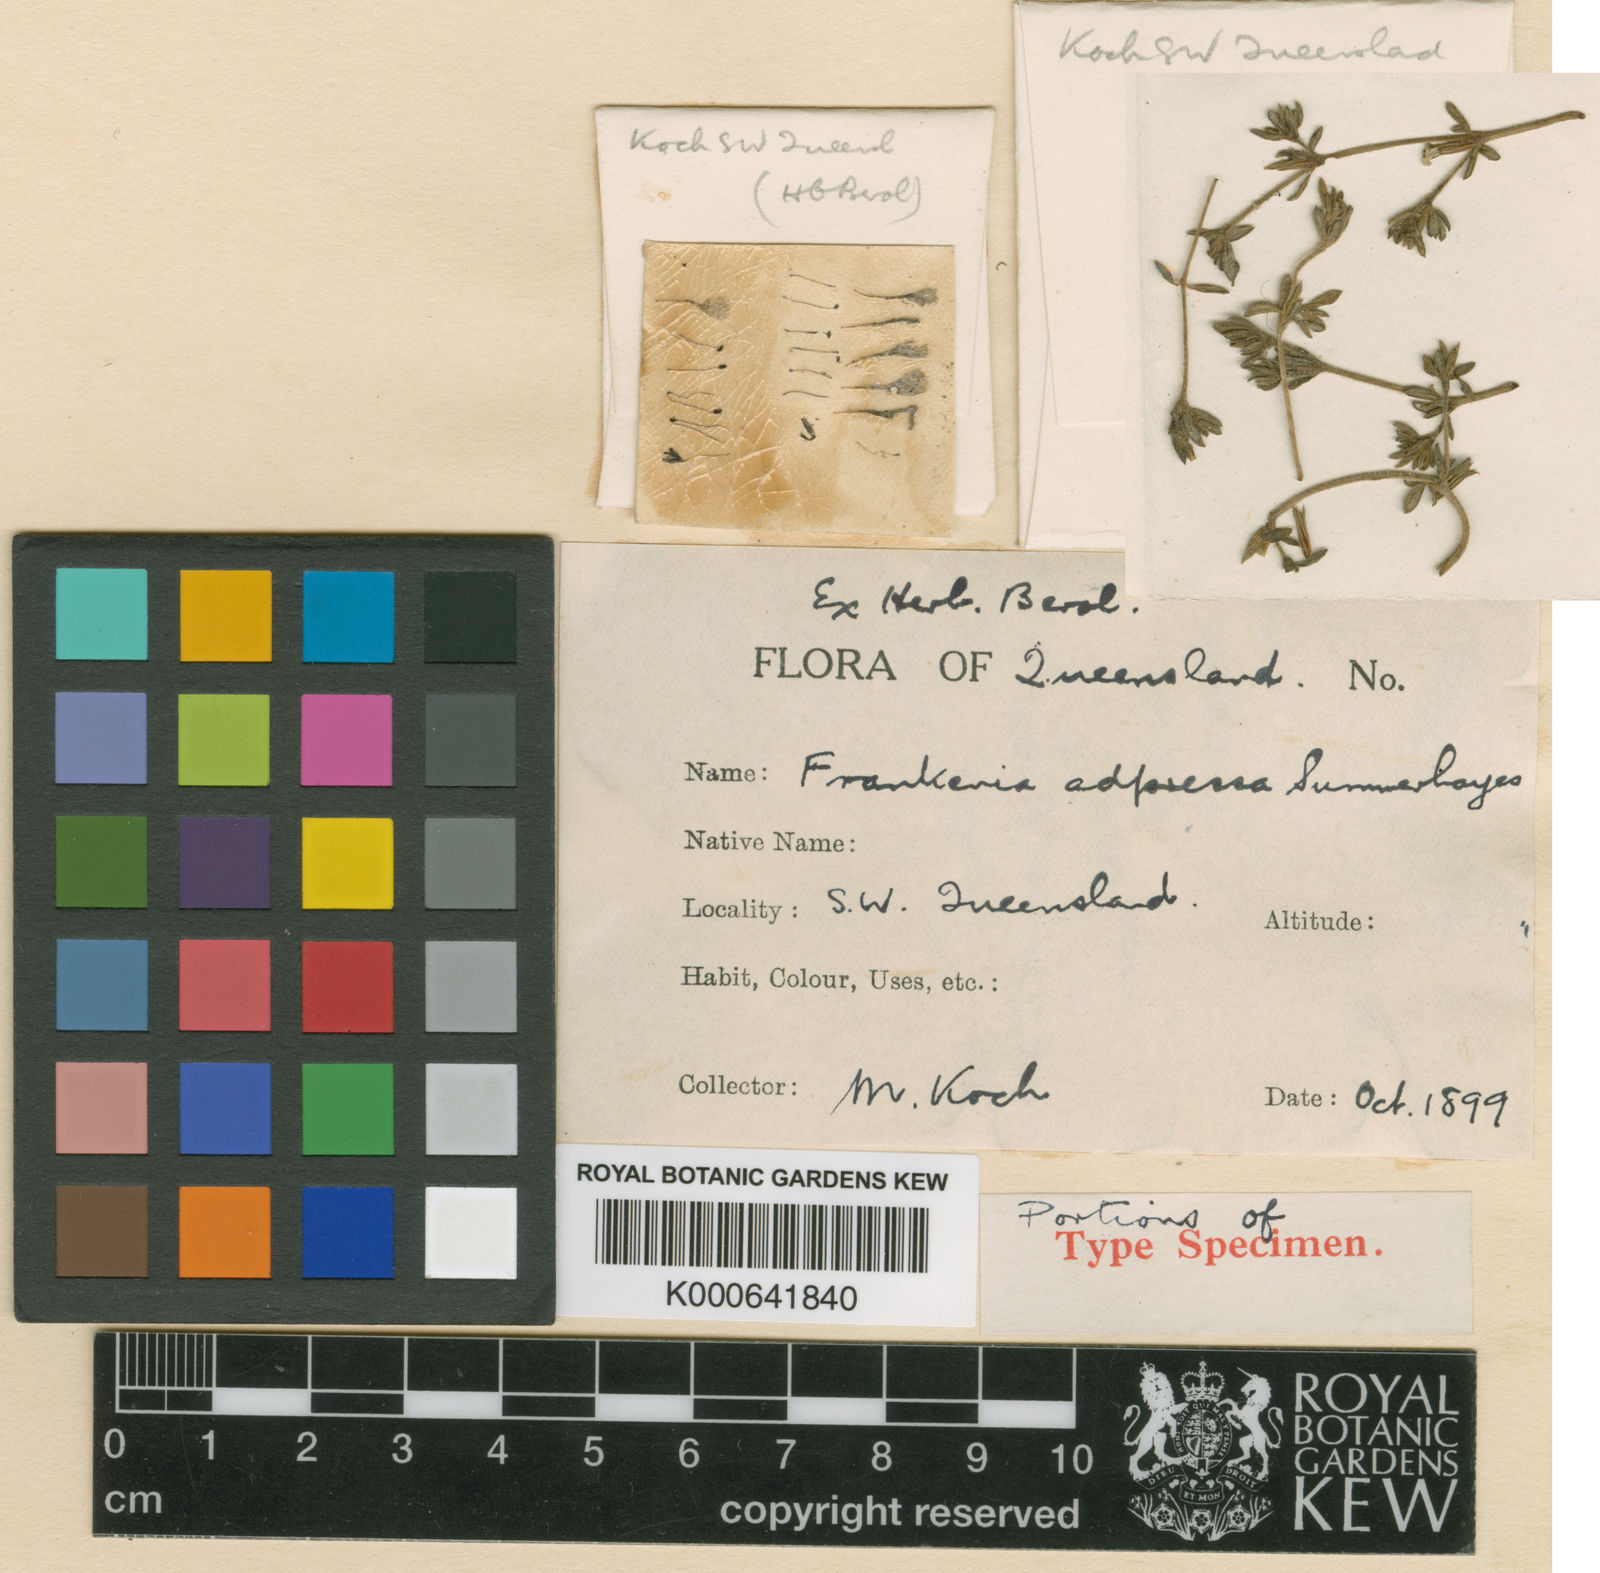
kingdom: Plantae
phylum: Tracheophyta
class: Magnoliopsida
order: Caryophyllales
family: Frankeniaceae
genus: Frankenia
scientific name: Frankenia adpressa
